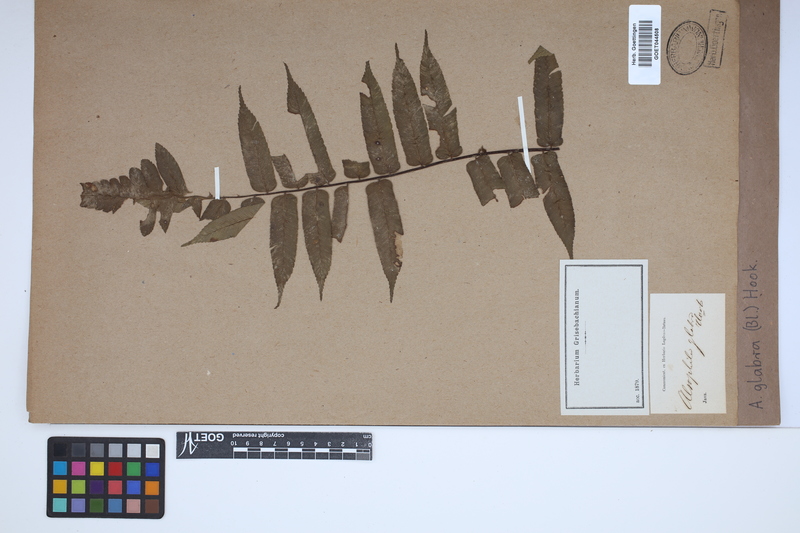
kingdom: Plantae
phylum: Tracheophyta
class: Polypodiopsida
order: Cyatheales
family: Cyatheaceae
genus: Gymnosphaera
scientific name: Gymnosphaera glabra
